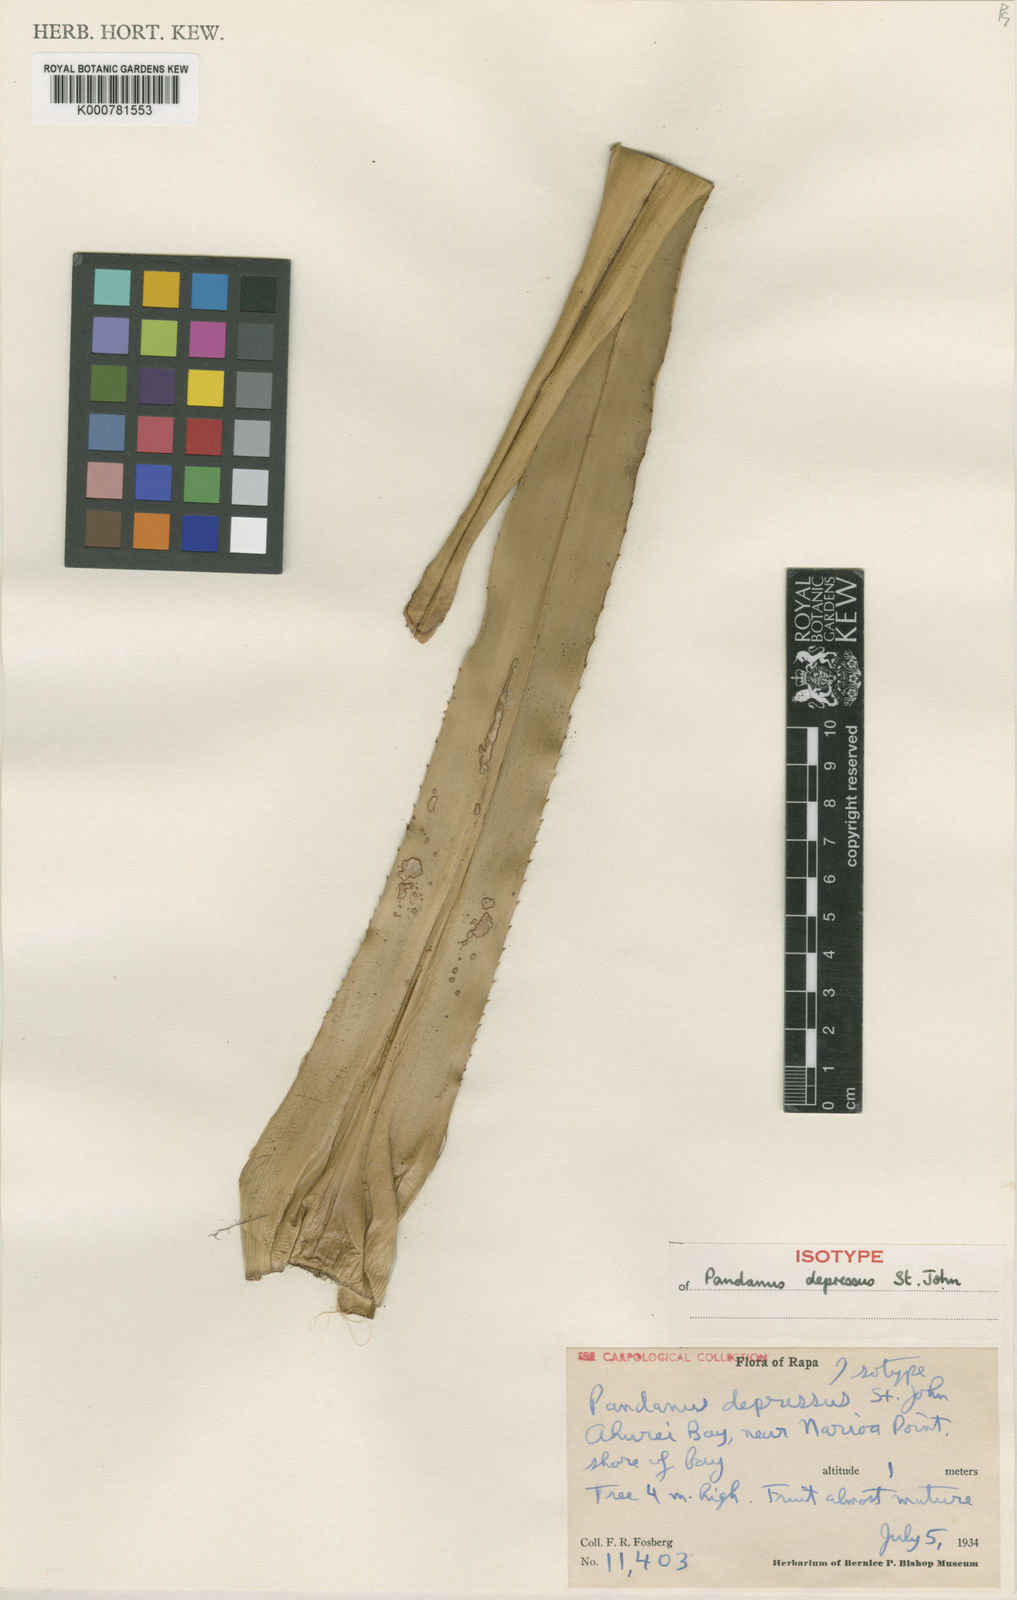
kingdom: Plantae
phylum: Tracheophyta
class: Liliopsida
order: Pandanales
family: Pandanaceae
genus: Pandanus
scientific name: Pandanus horizontalis
